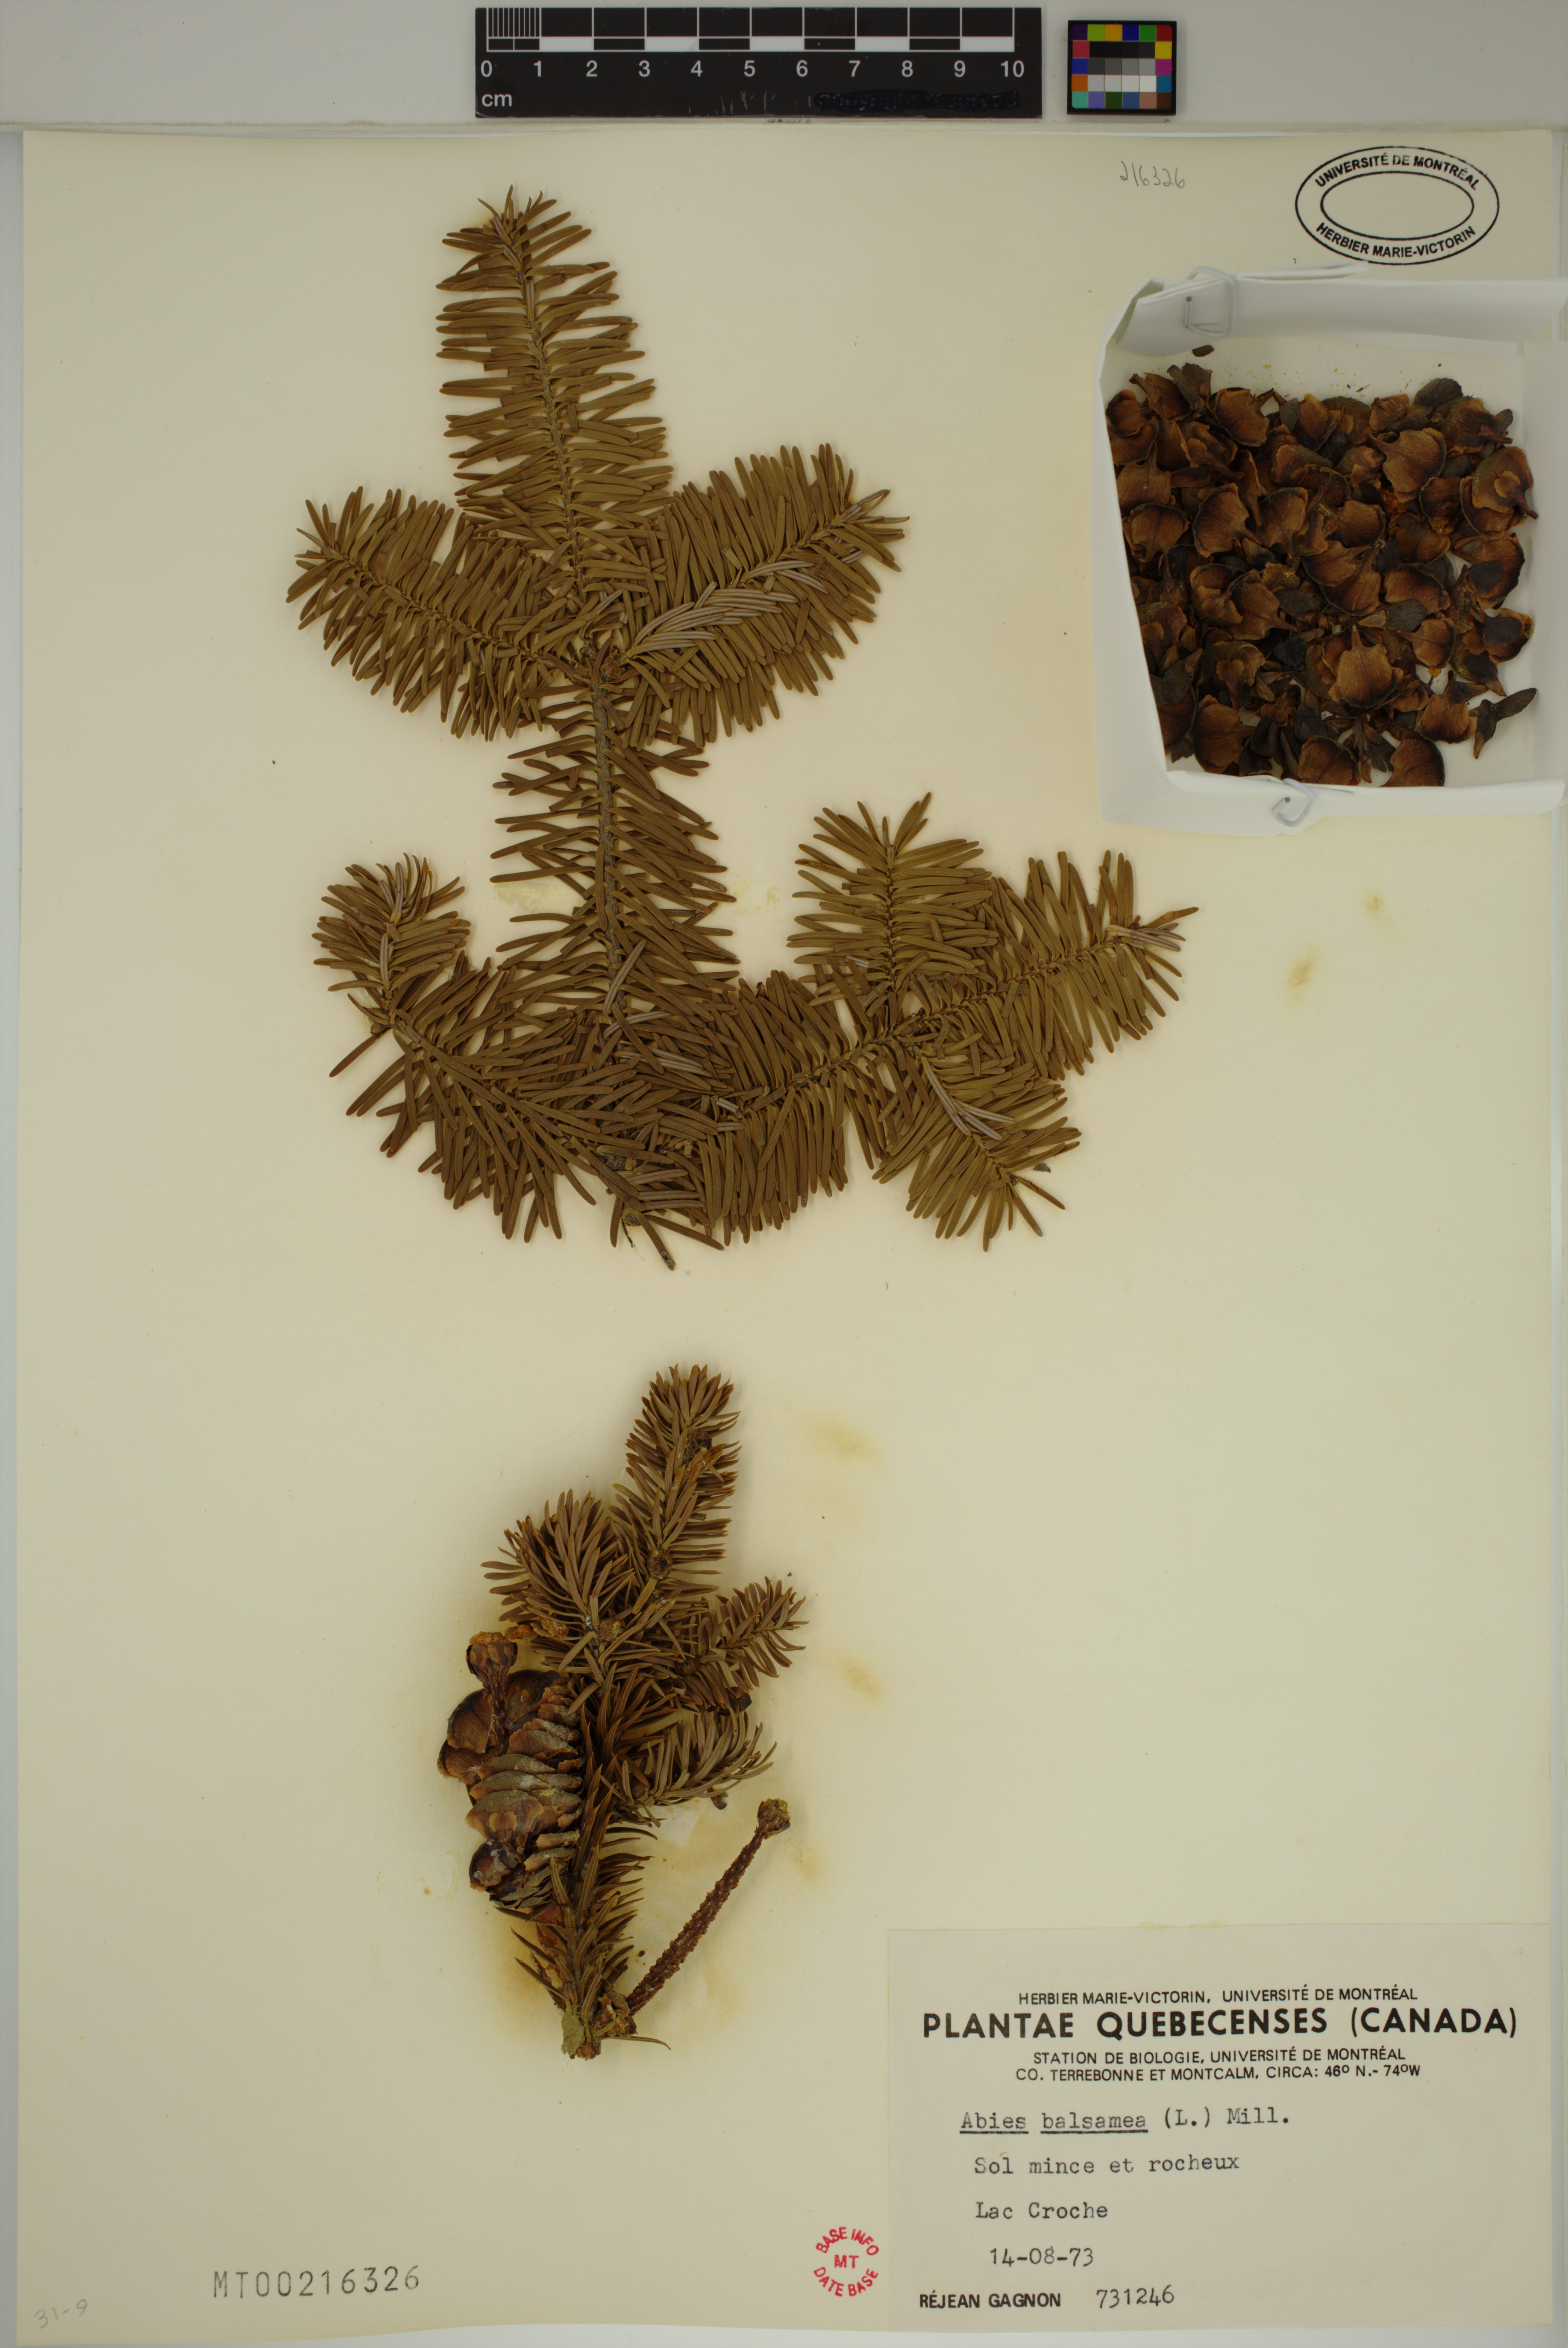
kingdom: Plantae
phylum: Tracheophyta
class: Pinopsida
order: Pinales
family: Pinaceae
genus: Abies
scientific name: Abies balsamea
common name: Balsam fir
